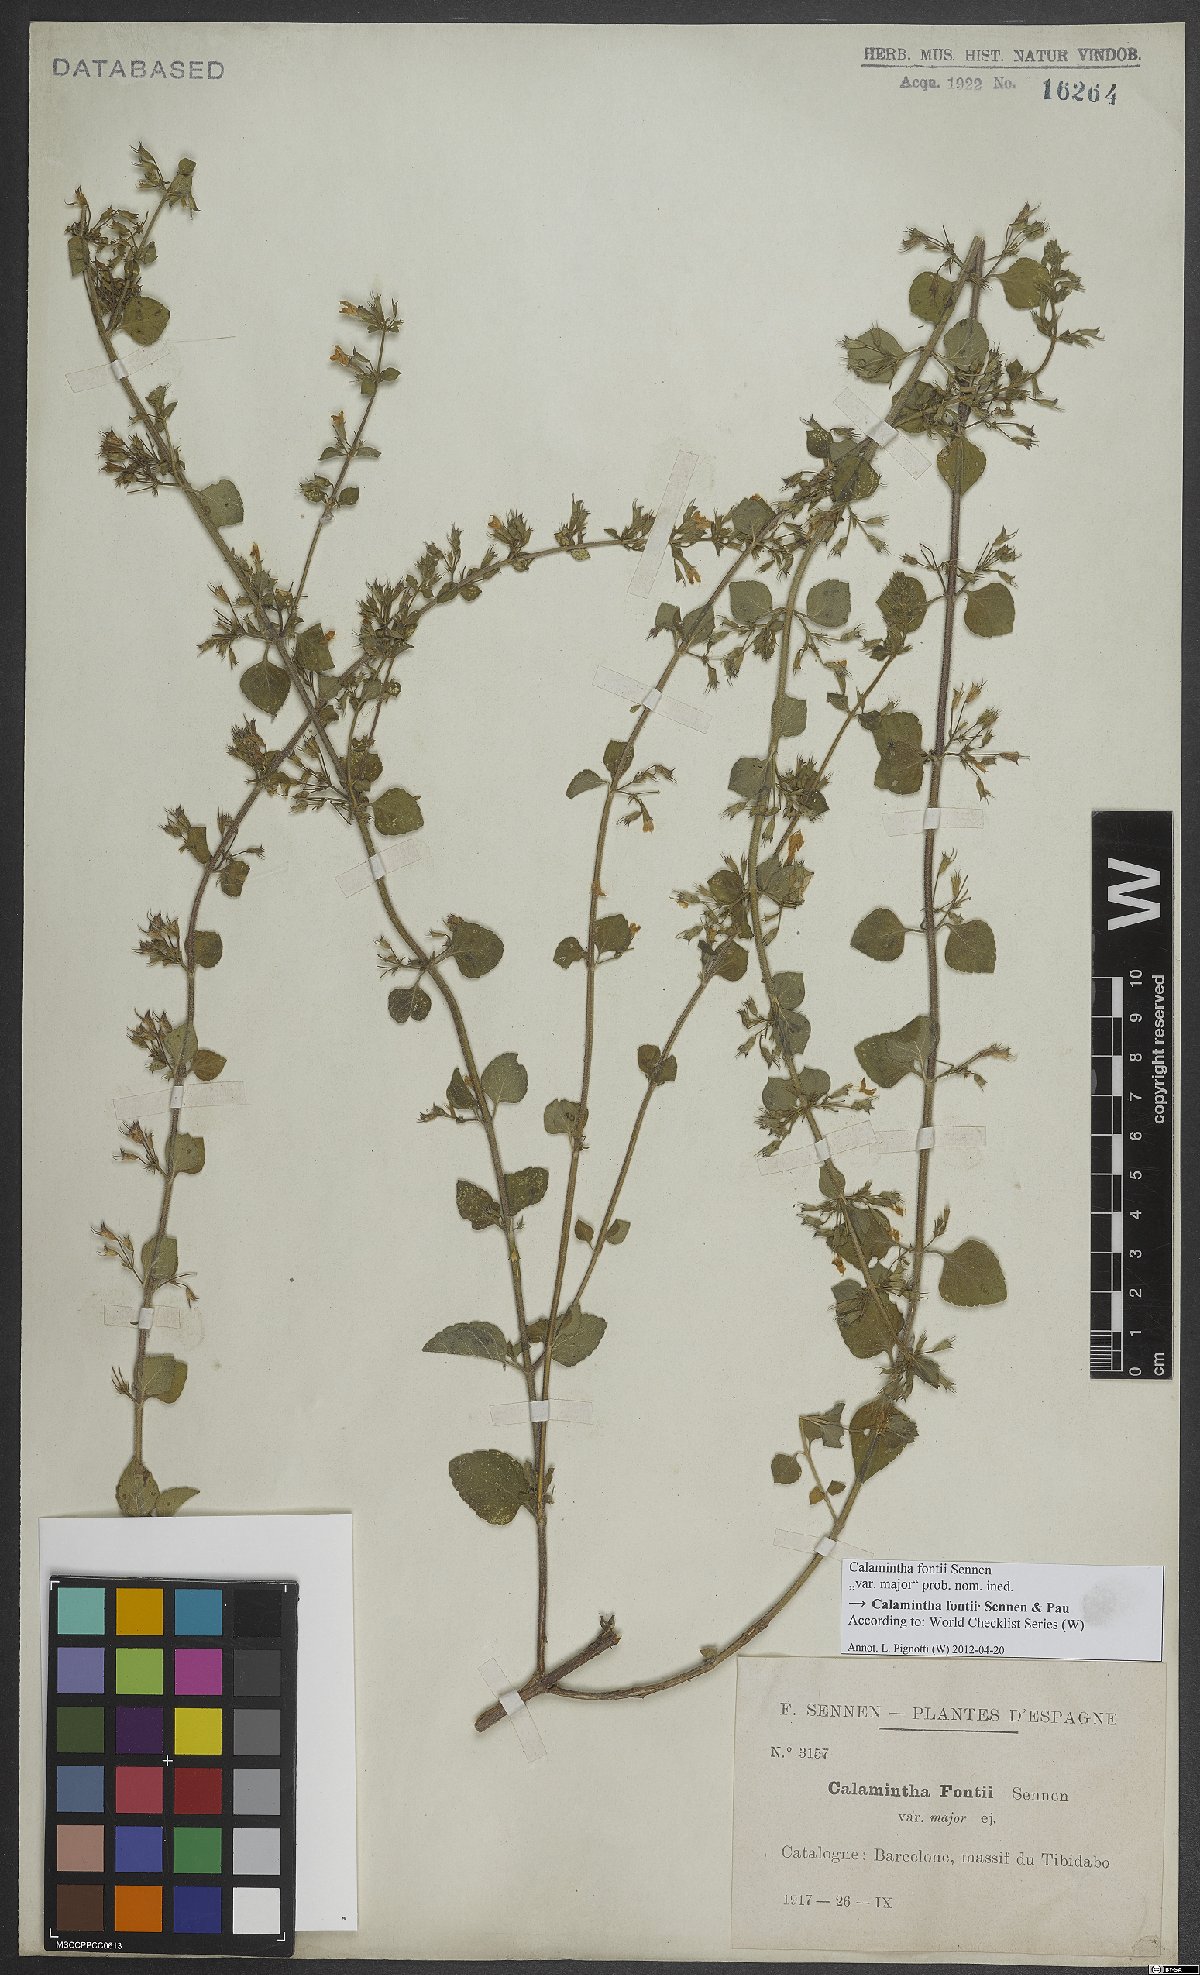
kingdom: Plantae
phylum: Tracheophyta
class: Magnoliopsida
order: Lamiales
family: Lamiaceae
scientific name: Lamiaceae
